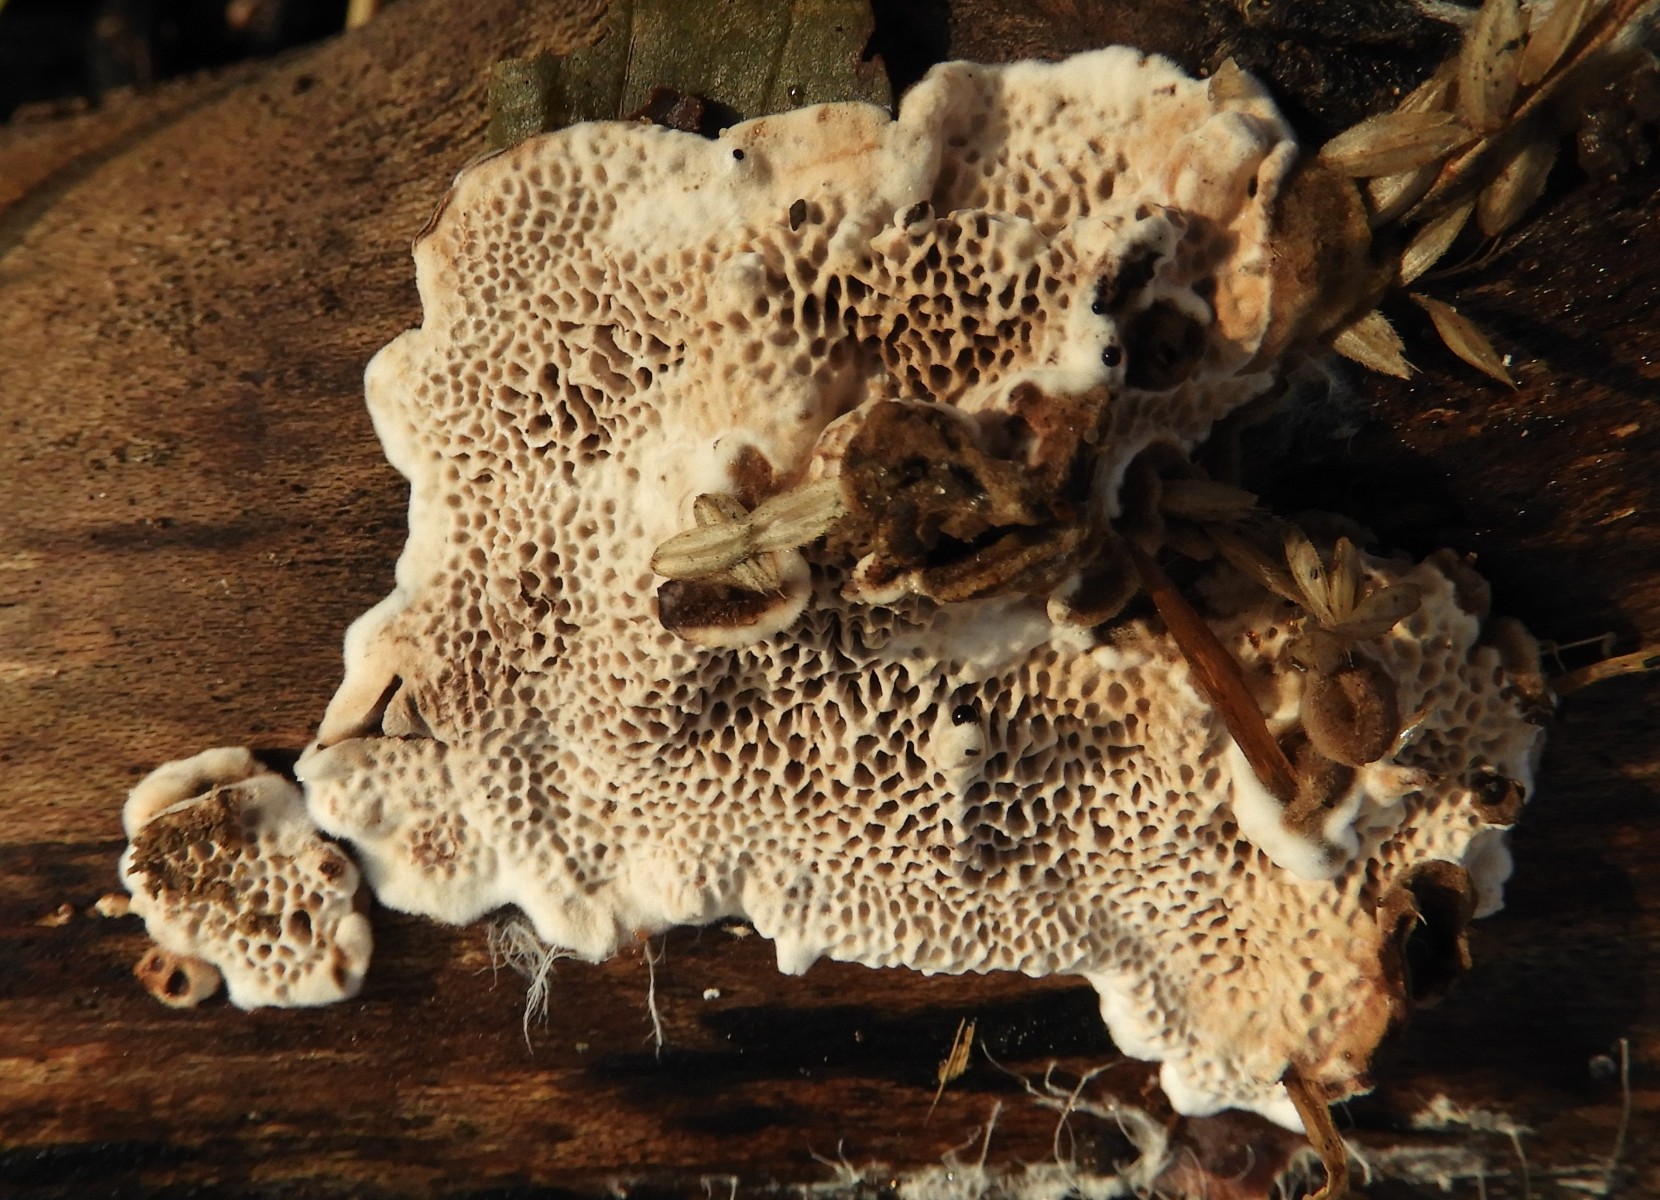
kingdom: Fungi
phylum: Basidiomycota
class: Agaricomycetes
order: Polyporales
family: Polyporaceae
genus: Podofomes
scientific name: Podofomes mollis
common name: blød begporesvamp
